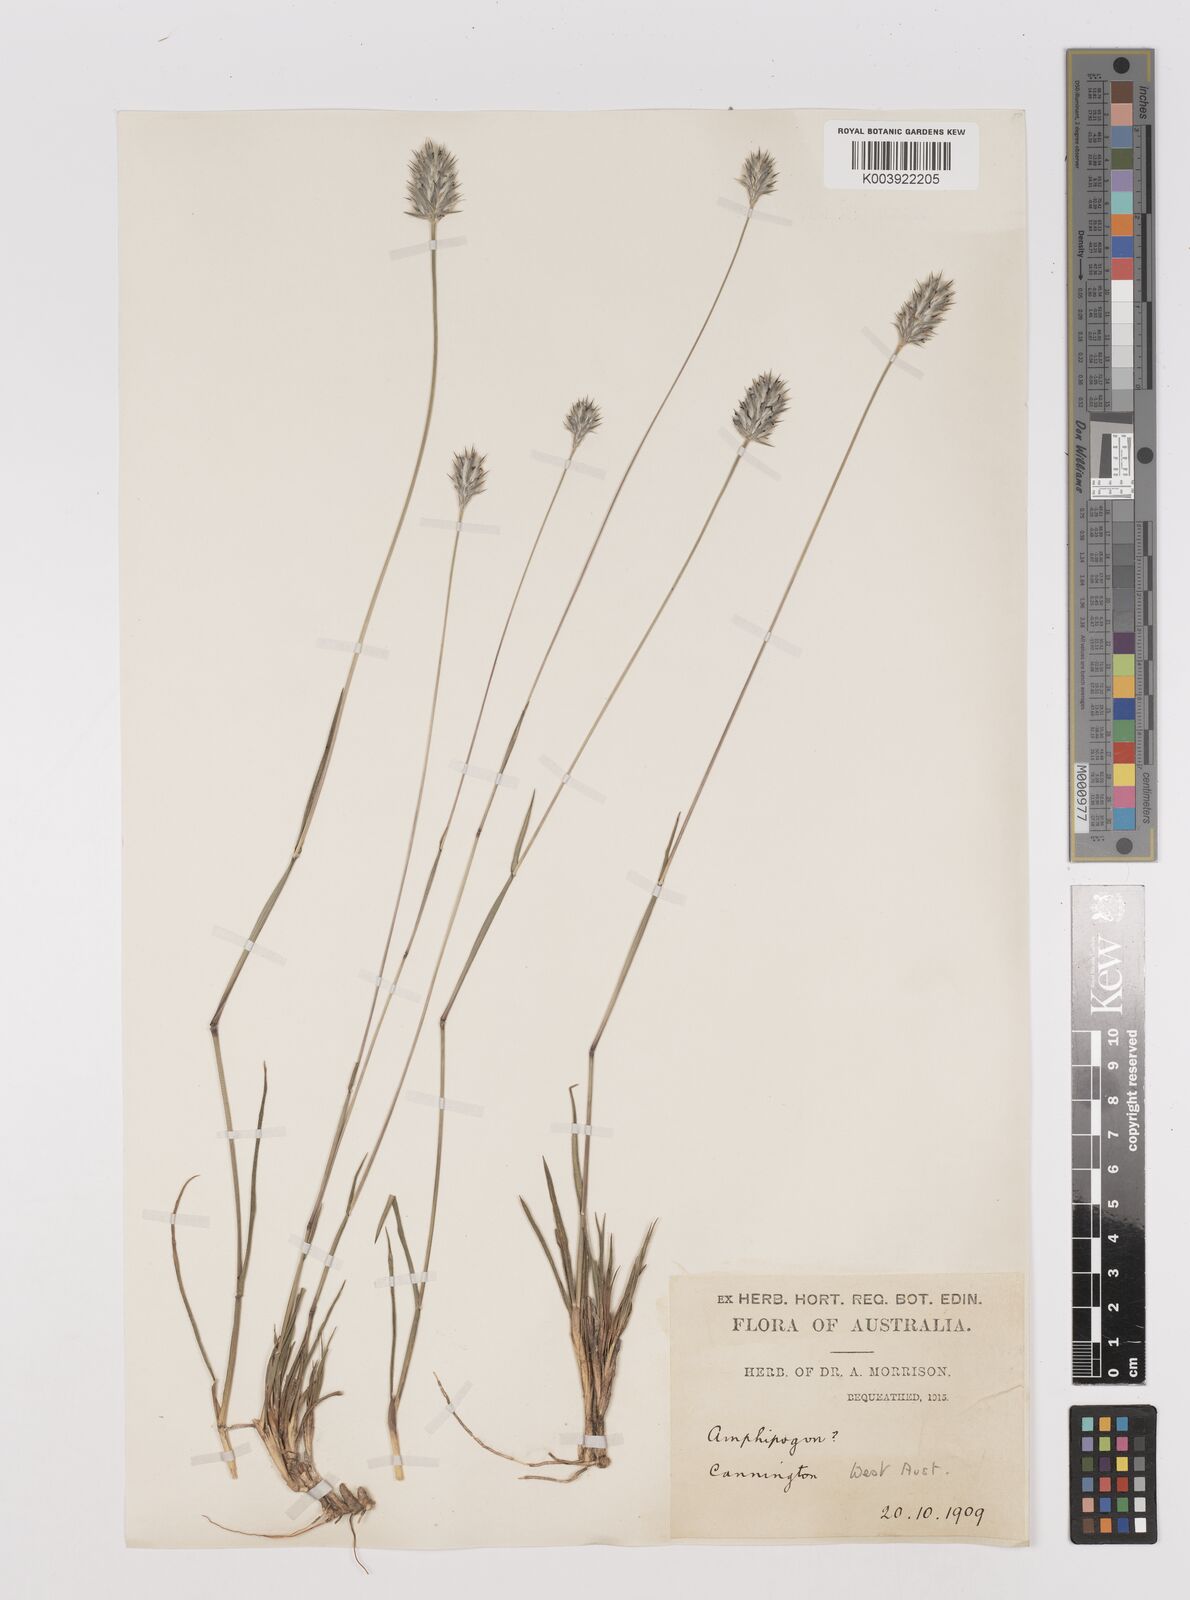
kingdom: Plantae
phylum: Tracheophyta
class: Liliopsida
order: Poales
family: Poaceae
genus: Neurachne
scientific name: Neurachne alopecuroidea
